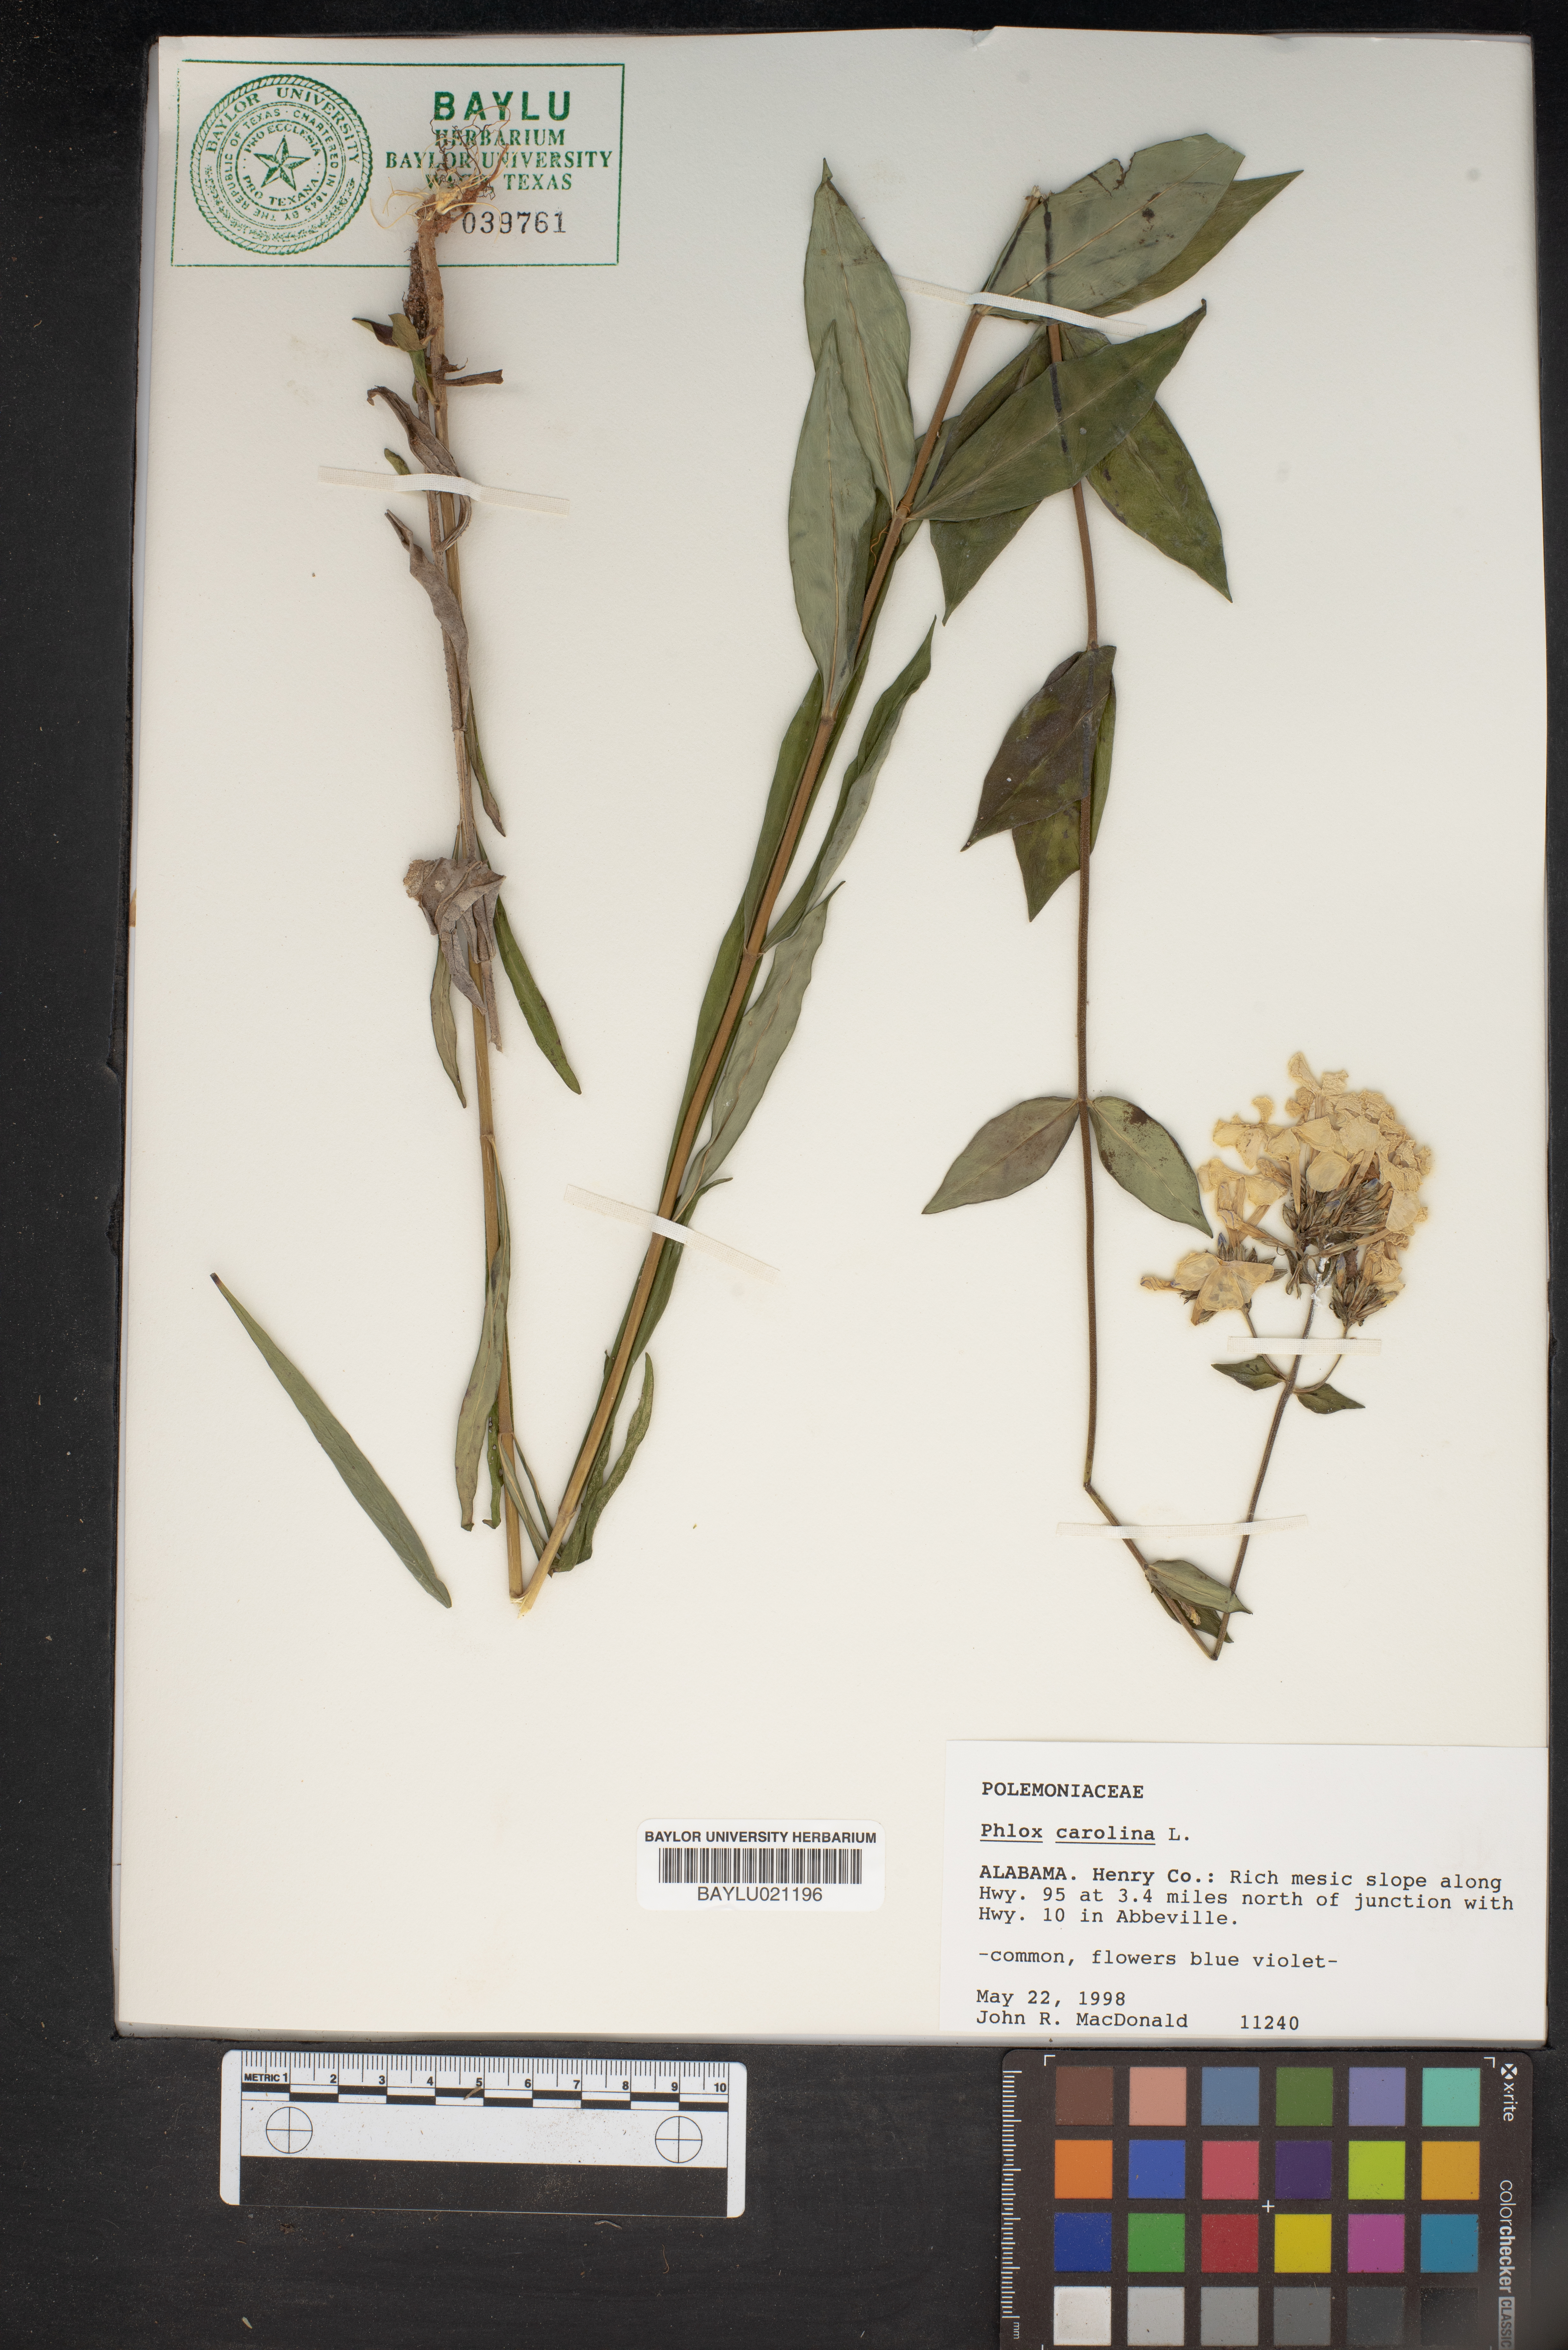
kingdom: Plantae
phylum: Tracheophyta
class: Magnoliopsida
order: Ericales
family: Polemoniaceae
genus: Phlox
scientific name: Phlox carolina
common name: Thick-leaf phlox
